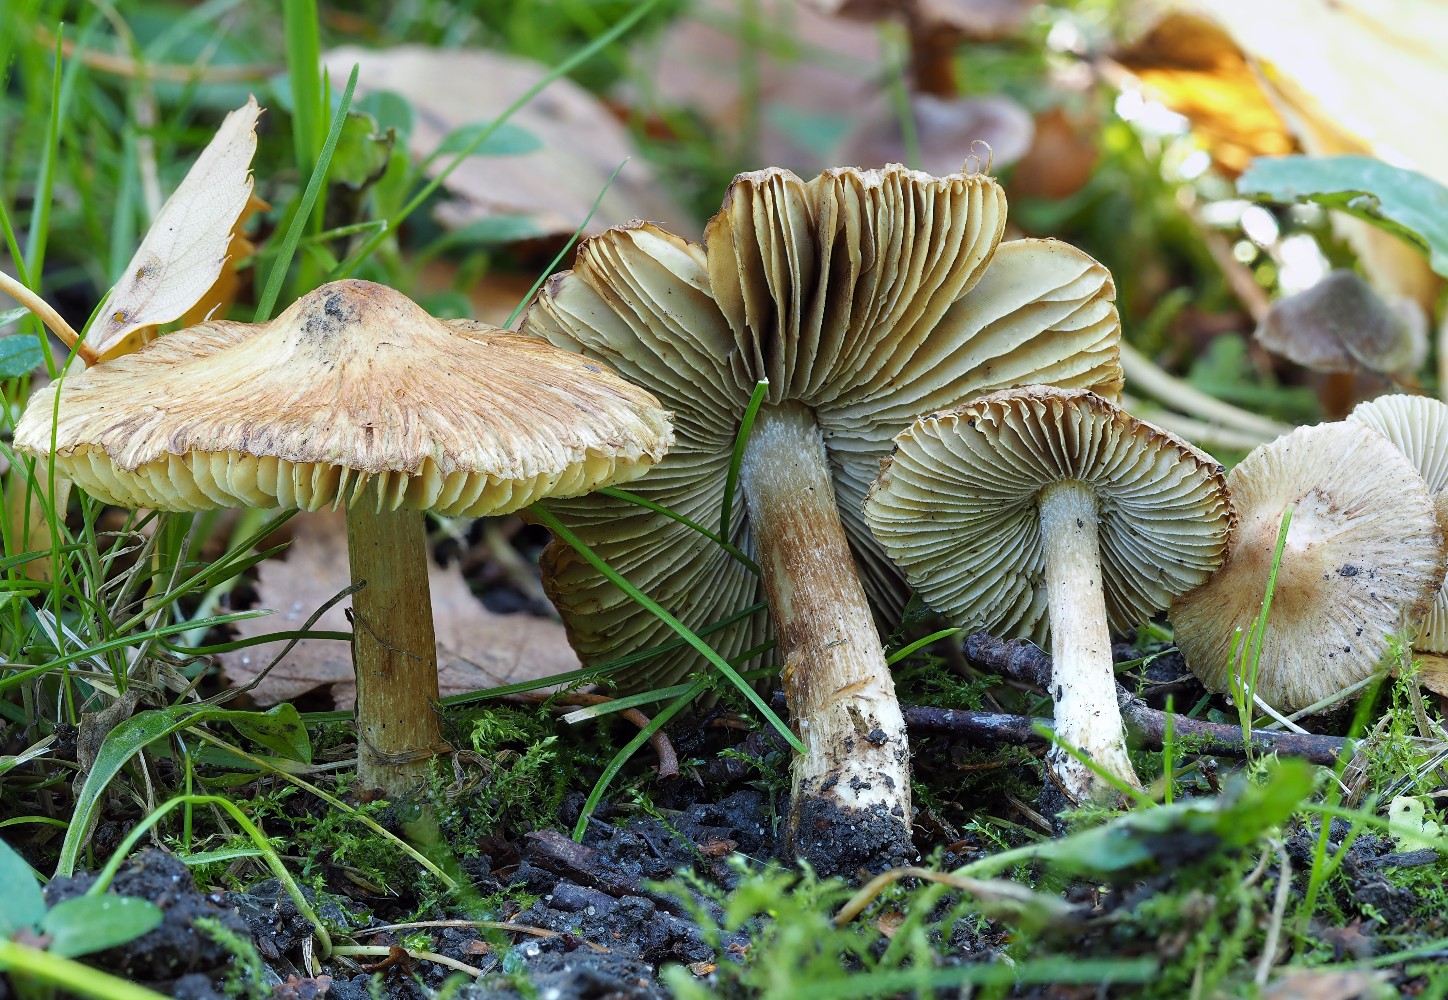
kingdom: Fungi
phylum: Basidiomycota
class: Agaricomycetes
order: Agaricales
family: Inocybaceae
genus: Pseudosperma
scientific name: Pseudosperma
